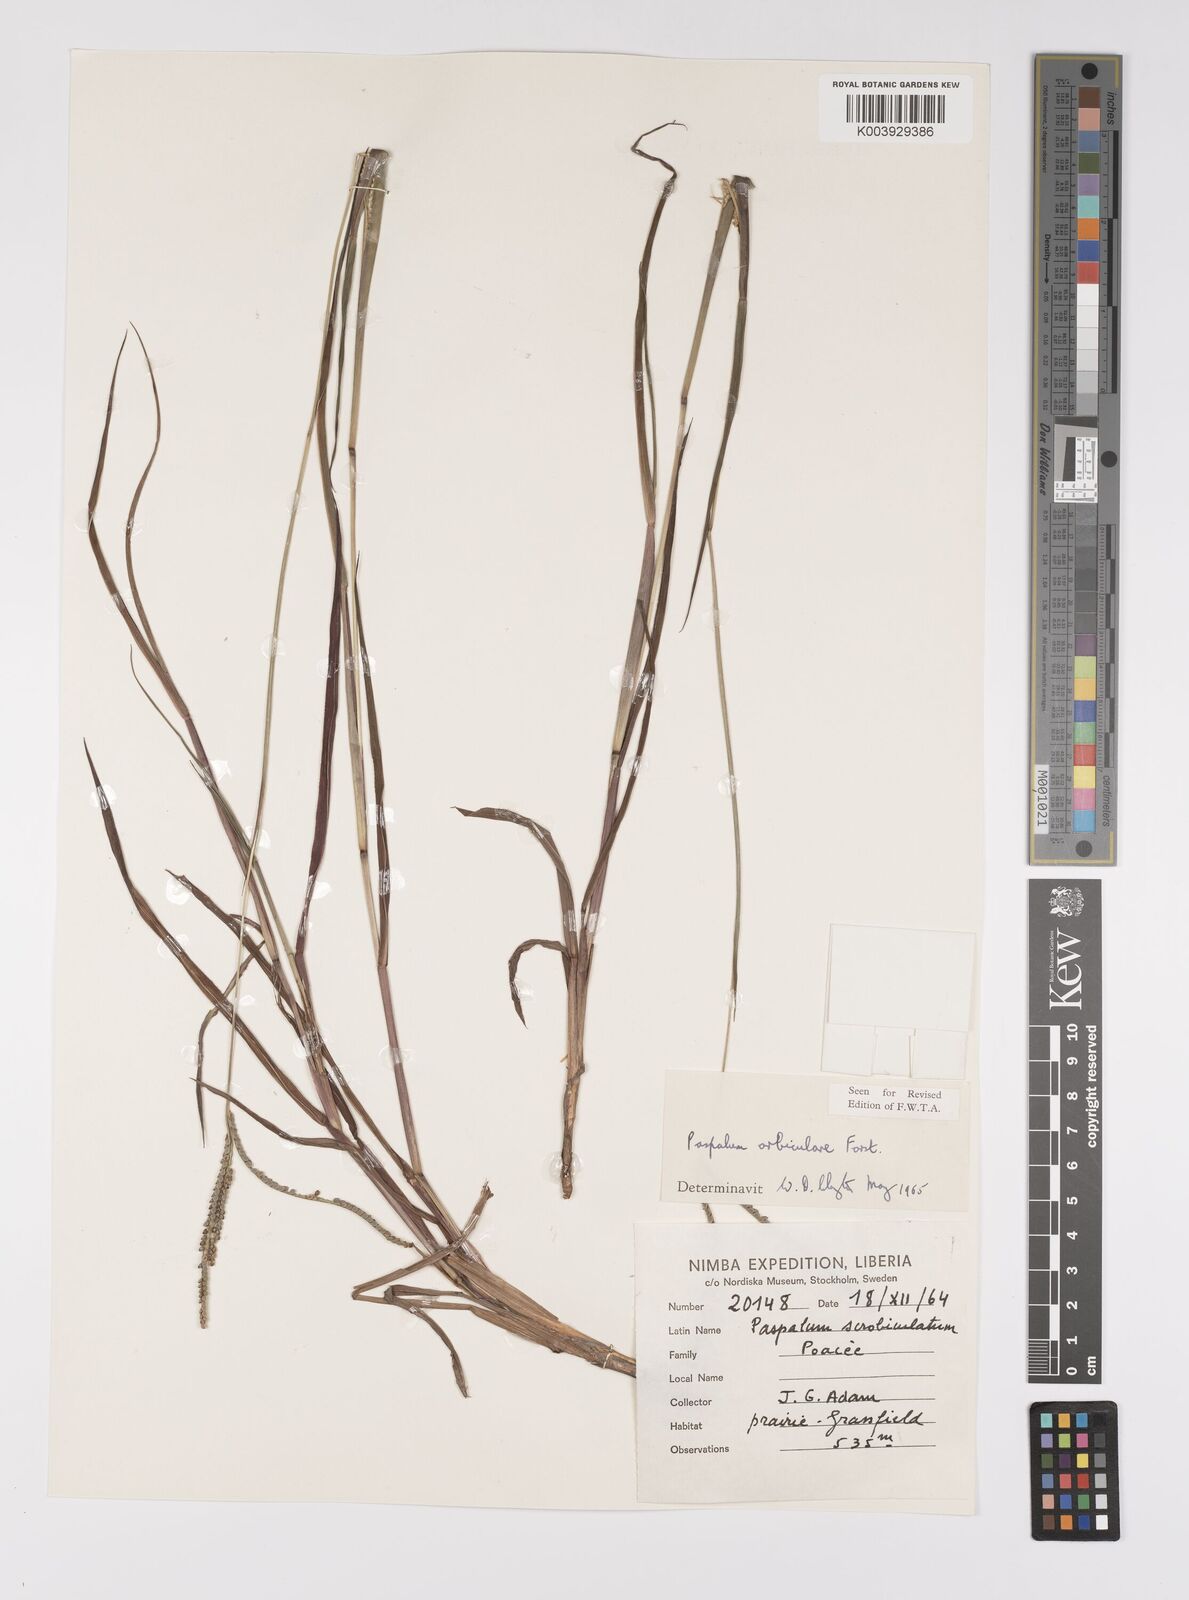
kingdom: Plantae
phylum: Tracheophyta
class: Liliopsida
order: Poales
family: Poaceae
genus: Paspalum
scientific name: Paspalum scrobiculatum
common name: Kodo millet
